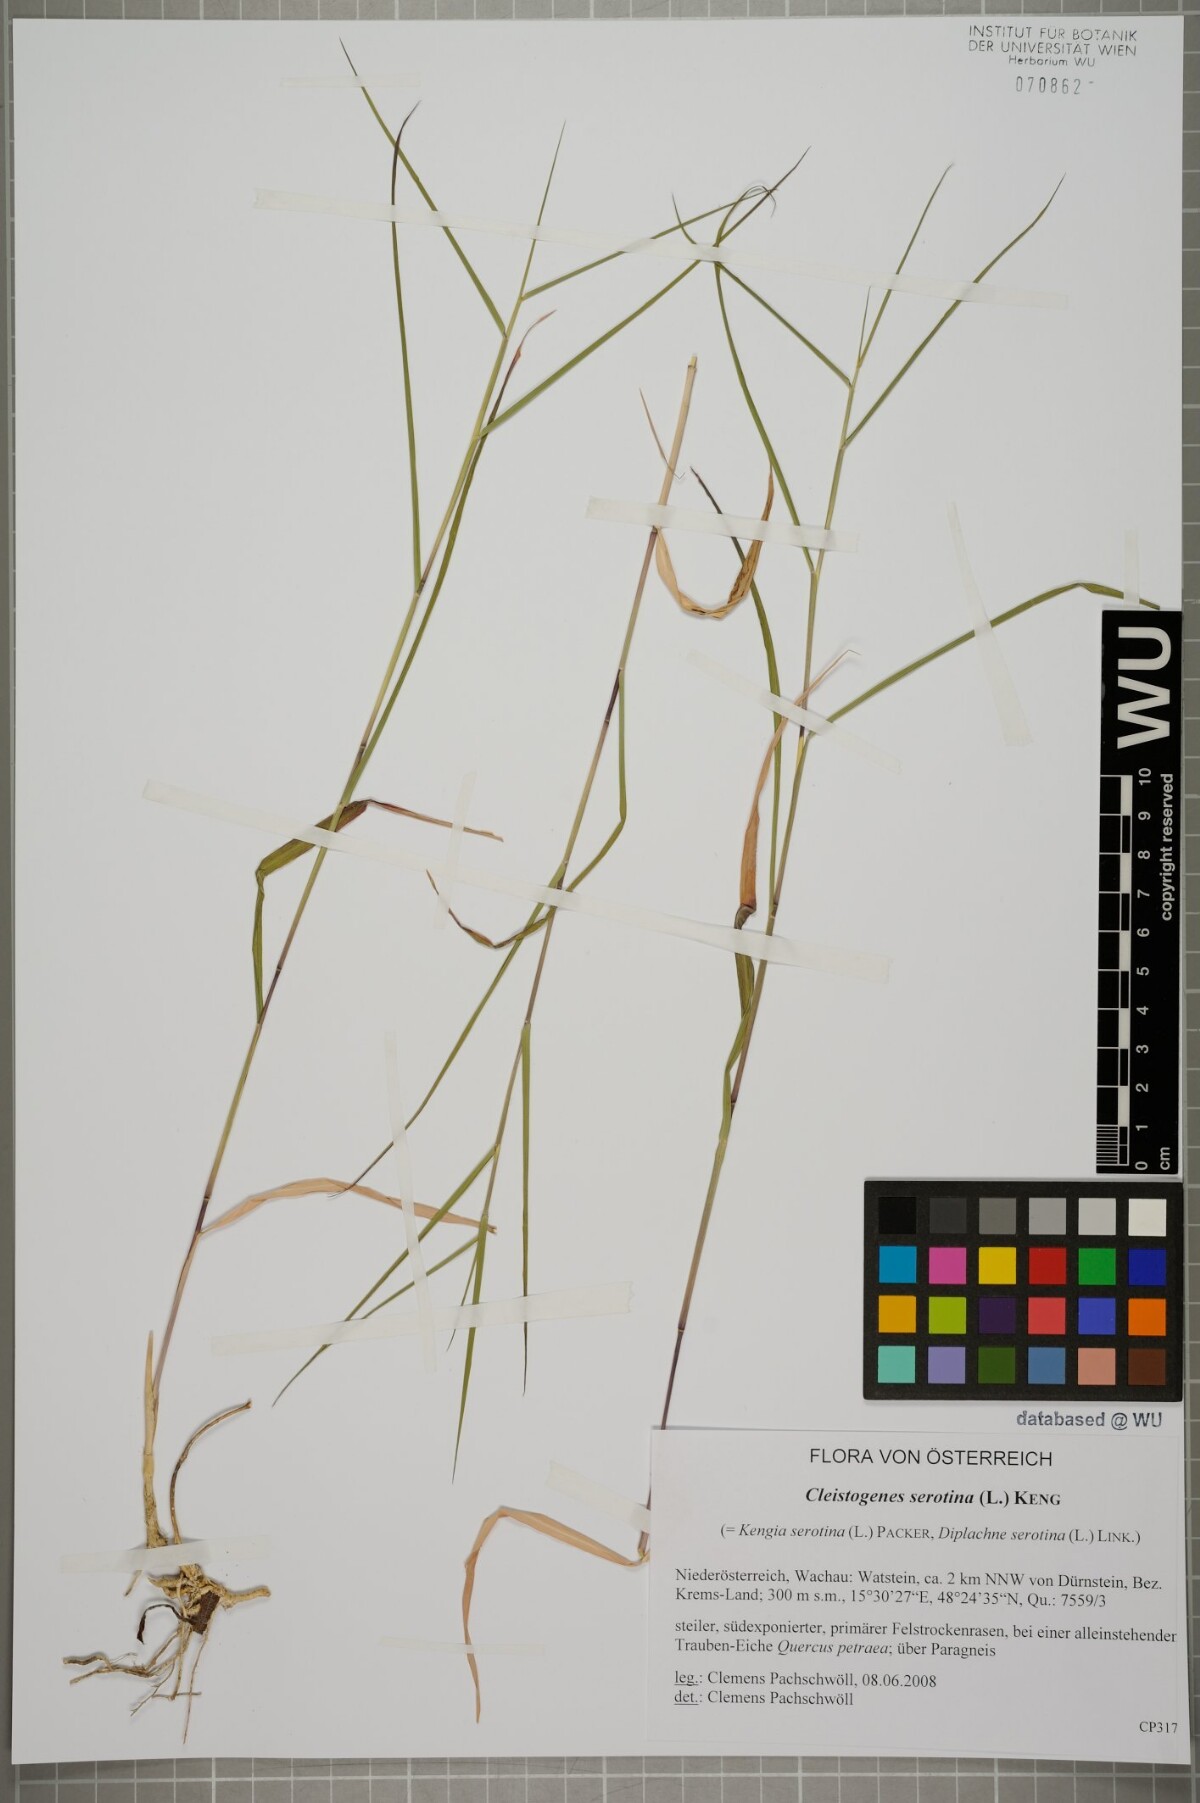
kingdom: Plantae
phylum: Tracheophyta
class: Liliopsida
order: Poales
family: Poaceae
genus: Cleistogenes
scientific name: Cleistogenes serotina
